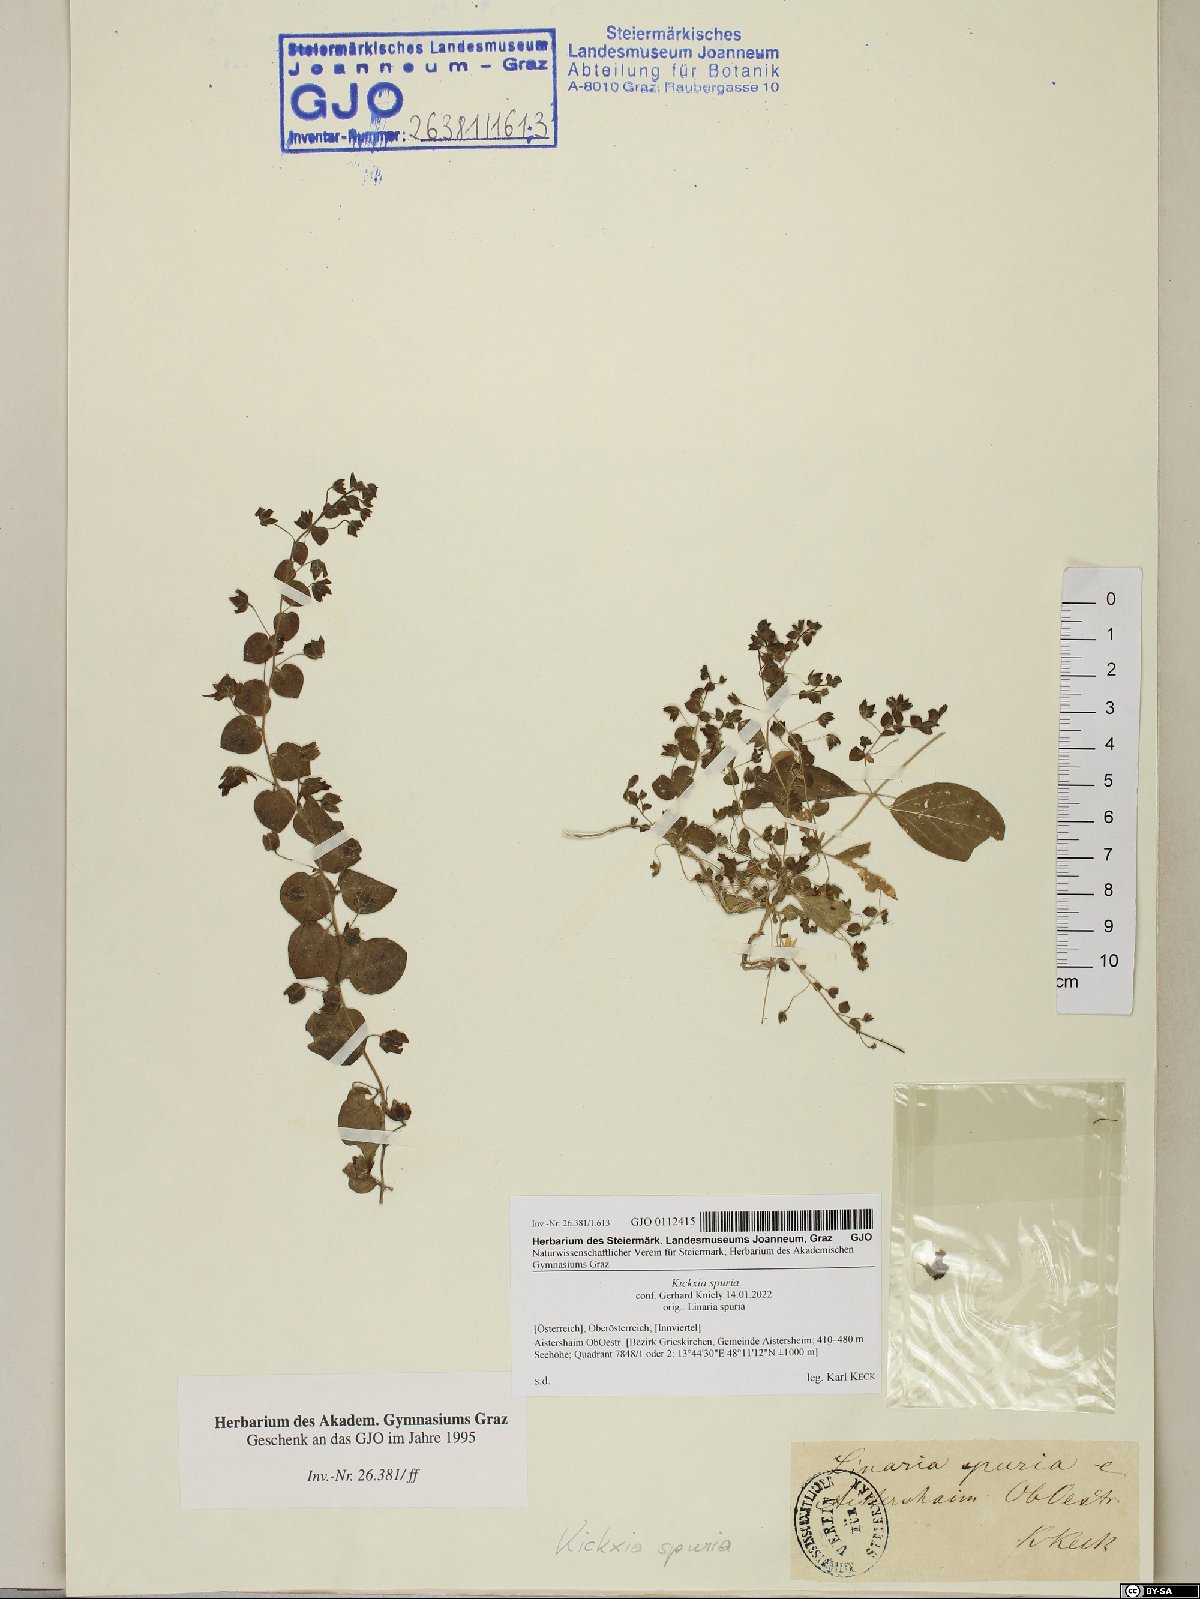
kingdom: Plantae
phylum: Tracheophyta
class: Magnoliopsida
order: Lamiales
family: Plantaginaceae
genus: Kickxia
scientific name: Kickxia spuria
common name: Round-leaved fluellen
